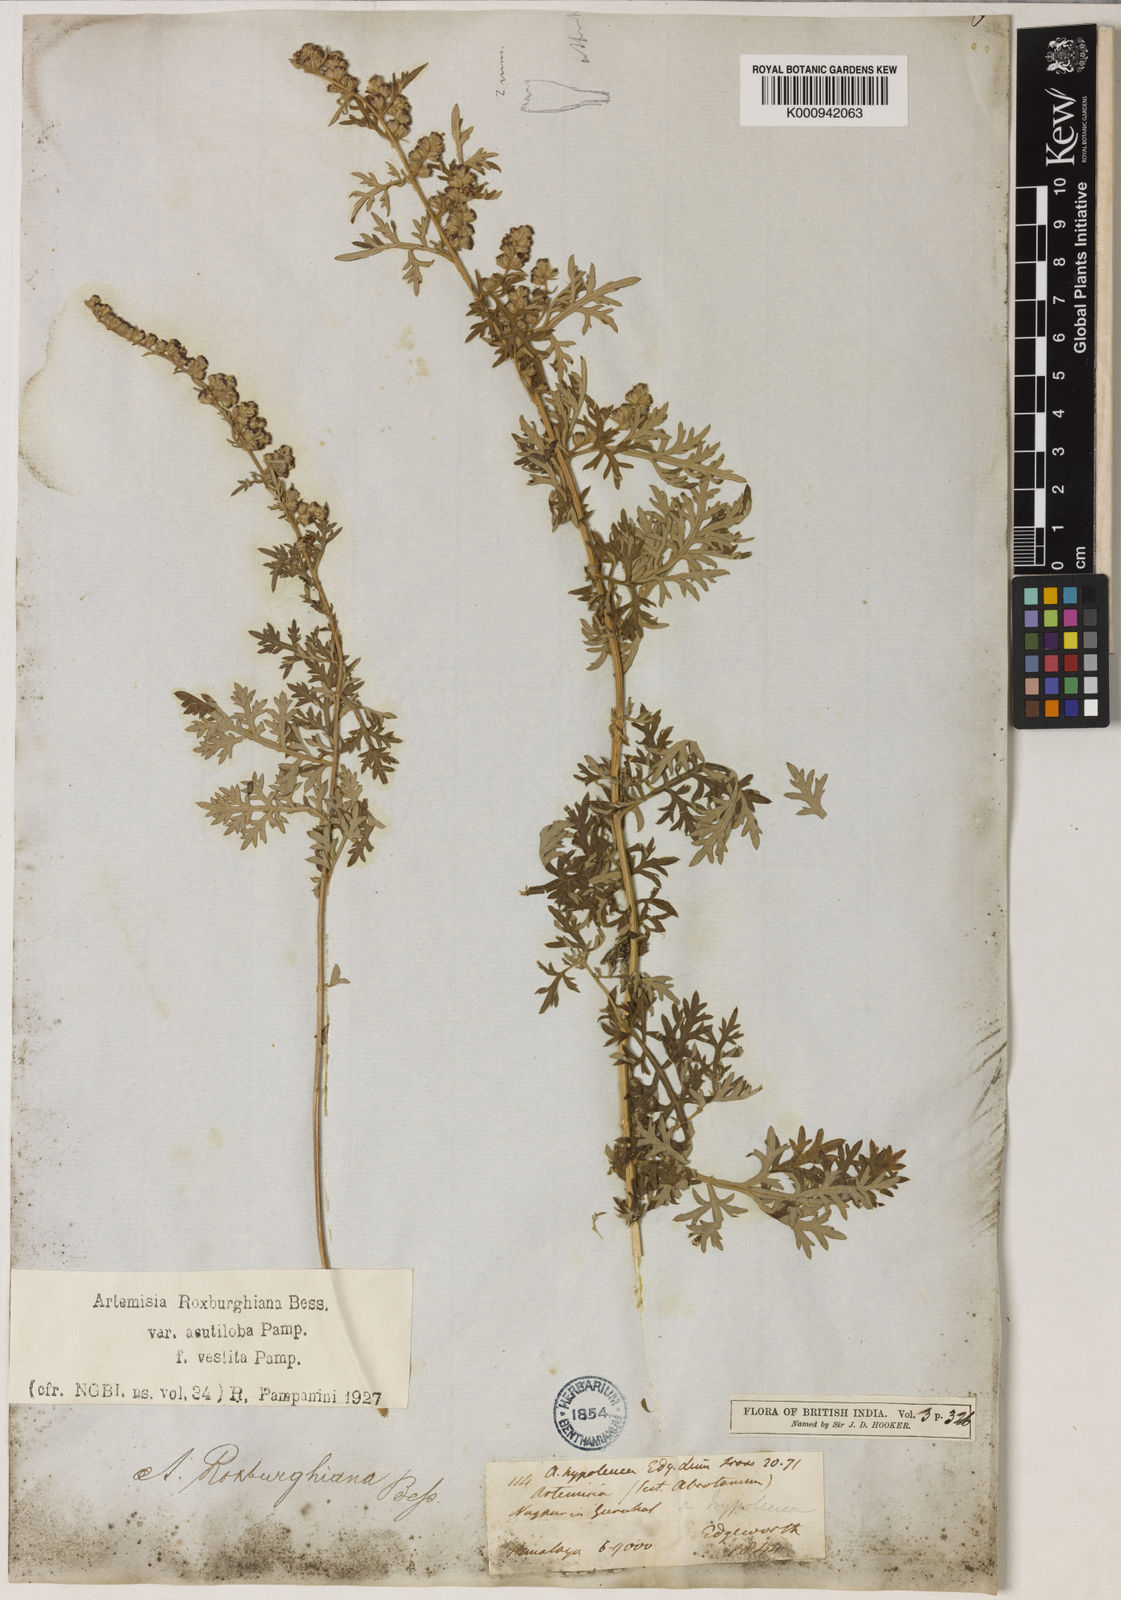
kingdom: Plantae
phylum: Tracheophyta
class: Magnoliopsida
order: Asterales
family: Asteraceae
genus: Artemisia
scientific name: Artemisia roxburghiana
